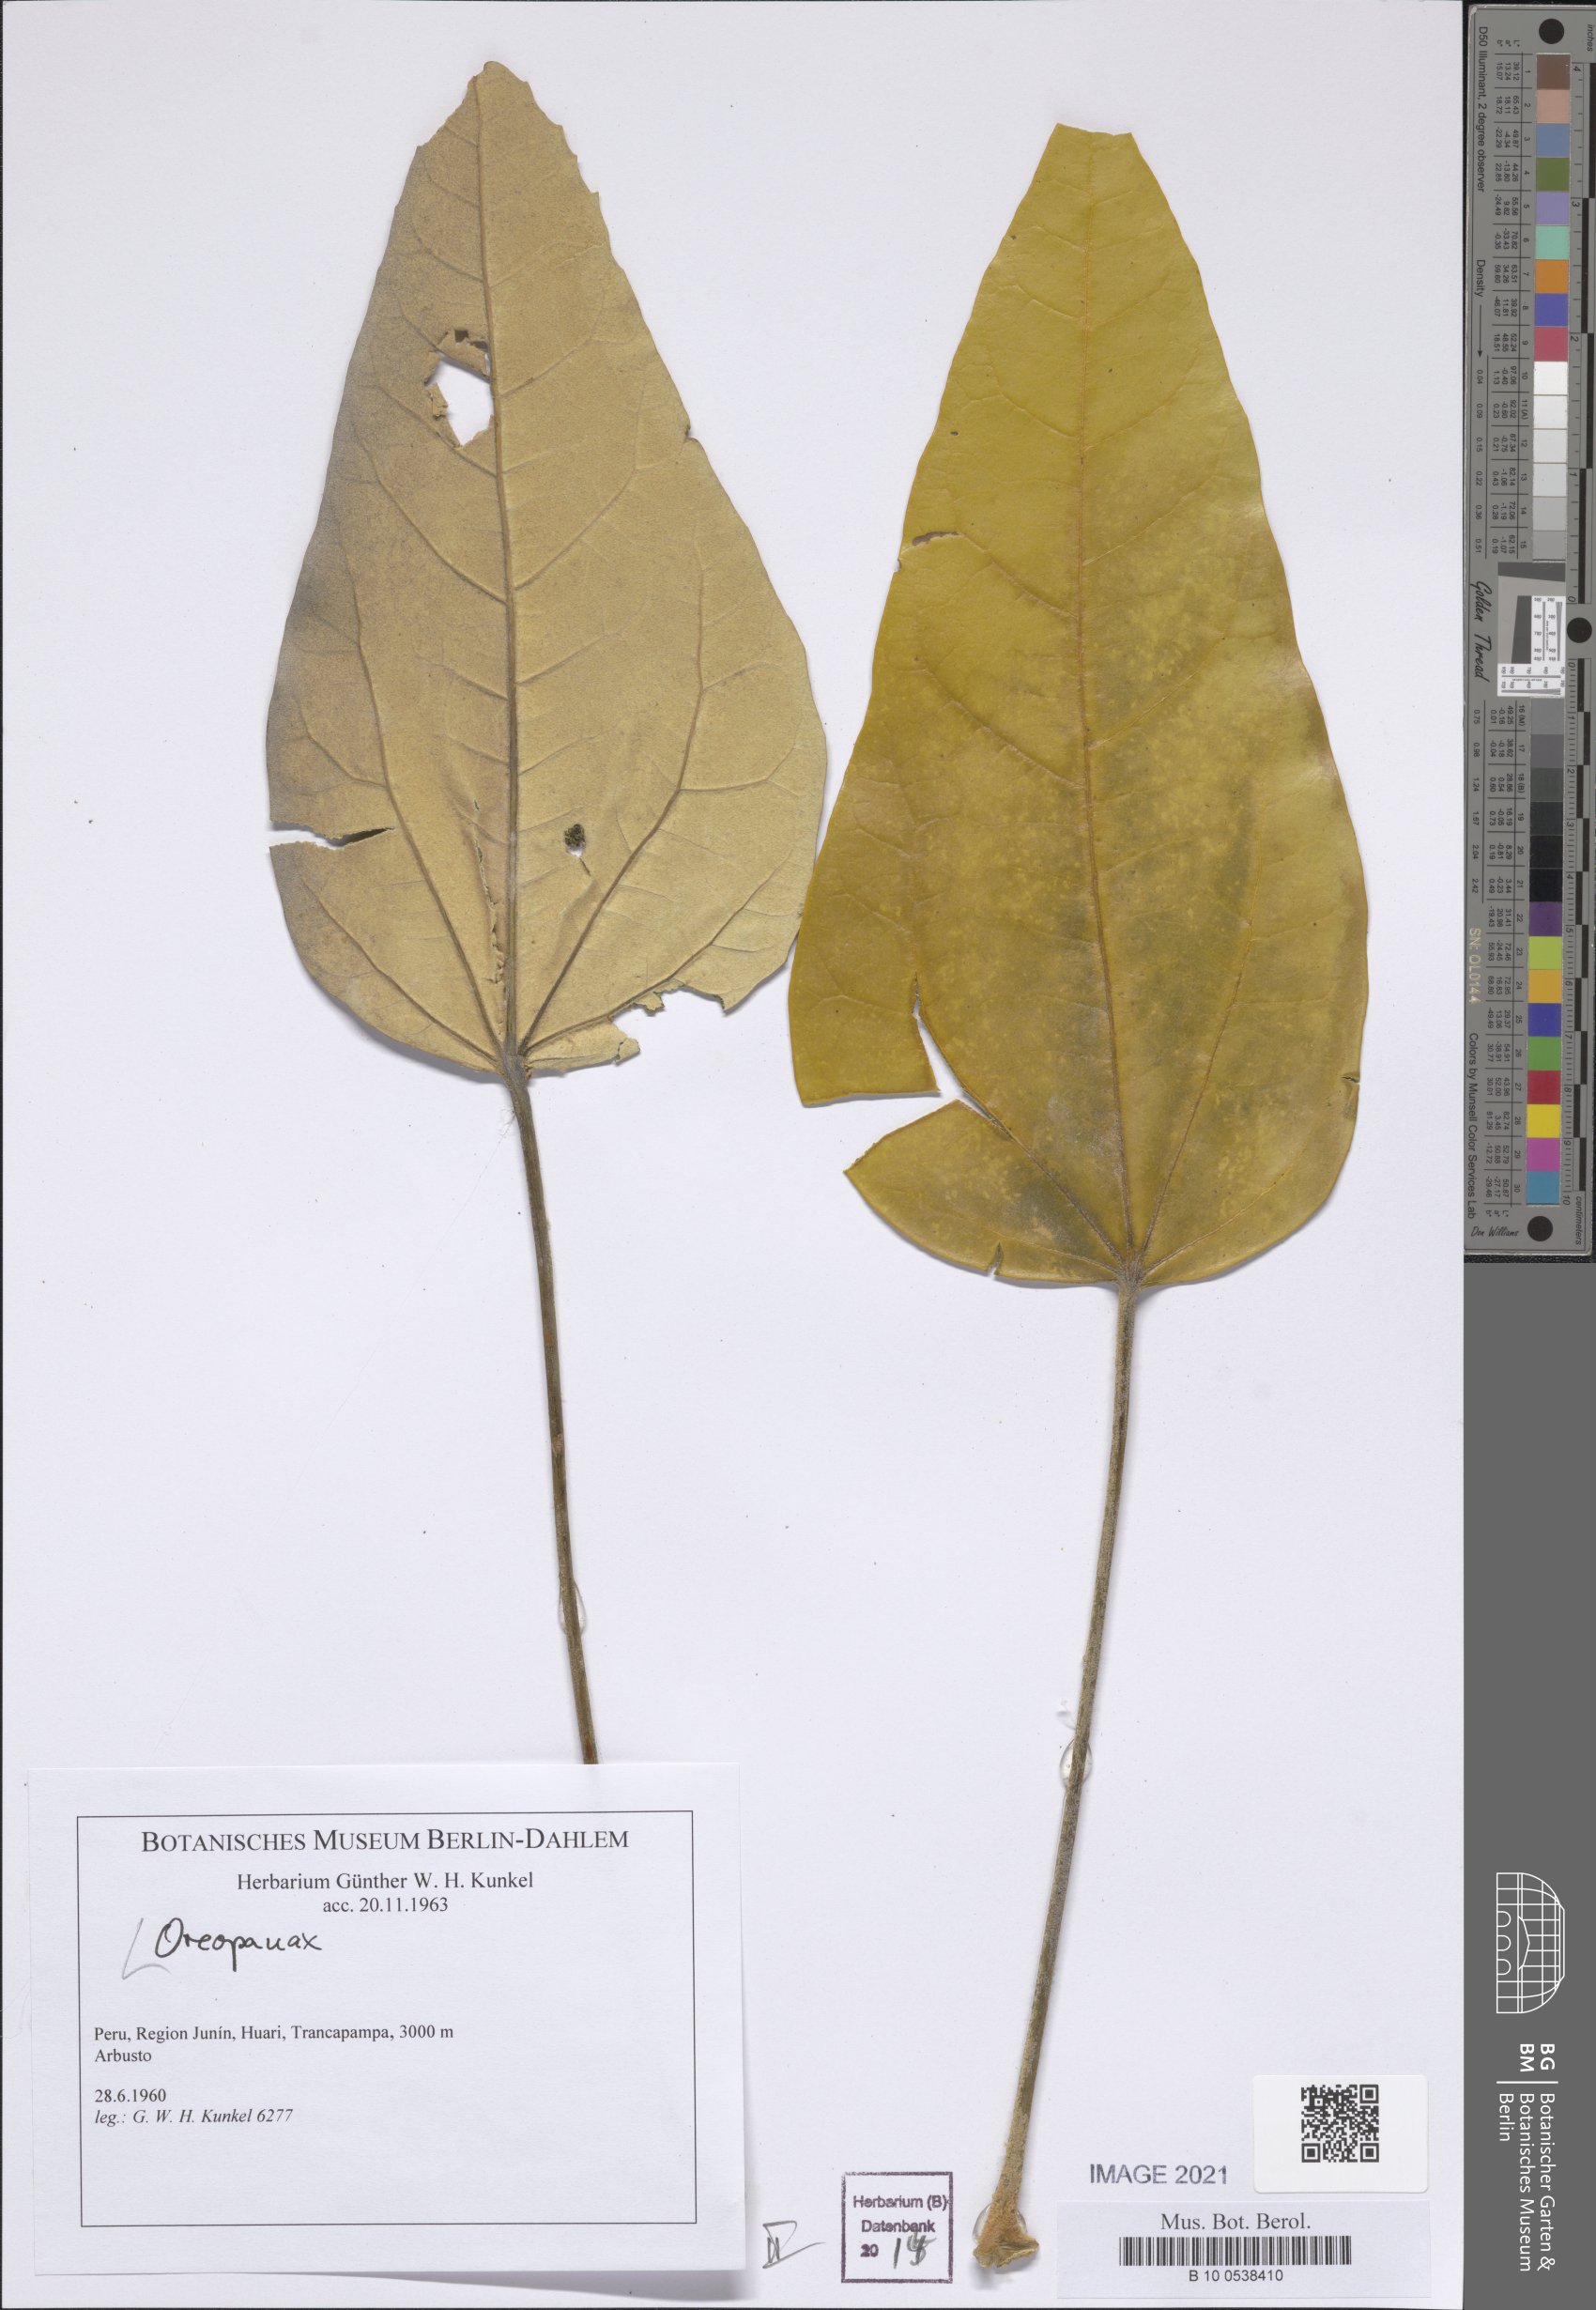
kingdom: Plantae
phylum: Tracheophyta
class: Magnoliopsida
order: Apiales
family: Araliaceae
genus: Oreopanax
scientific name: Oreopanax
